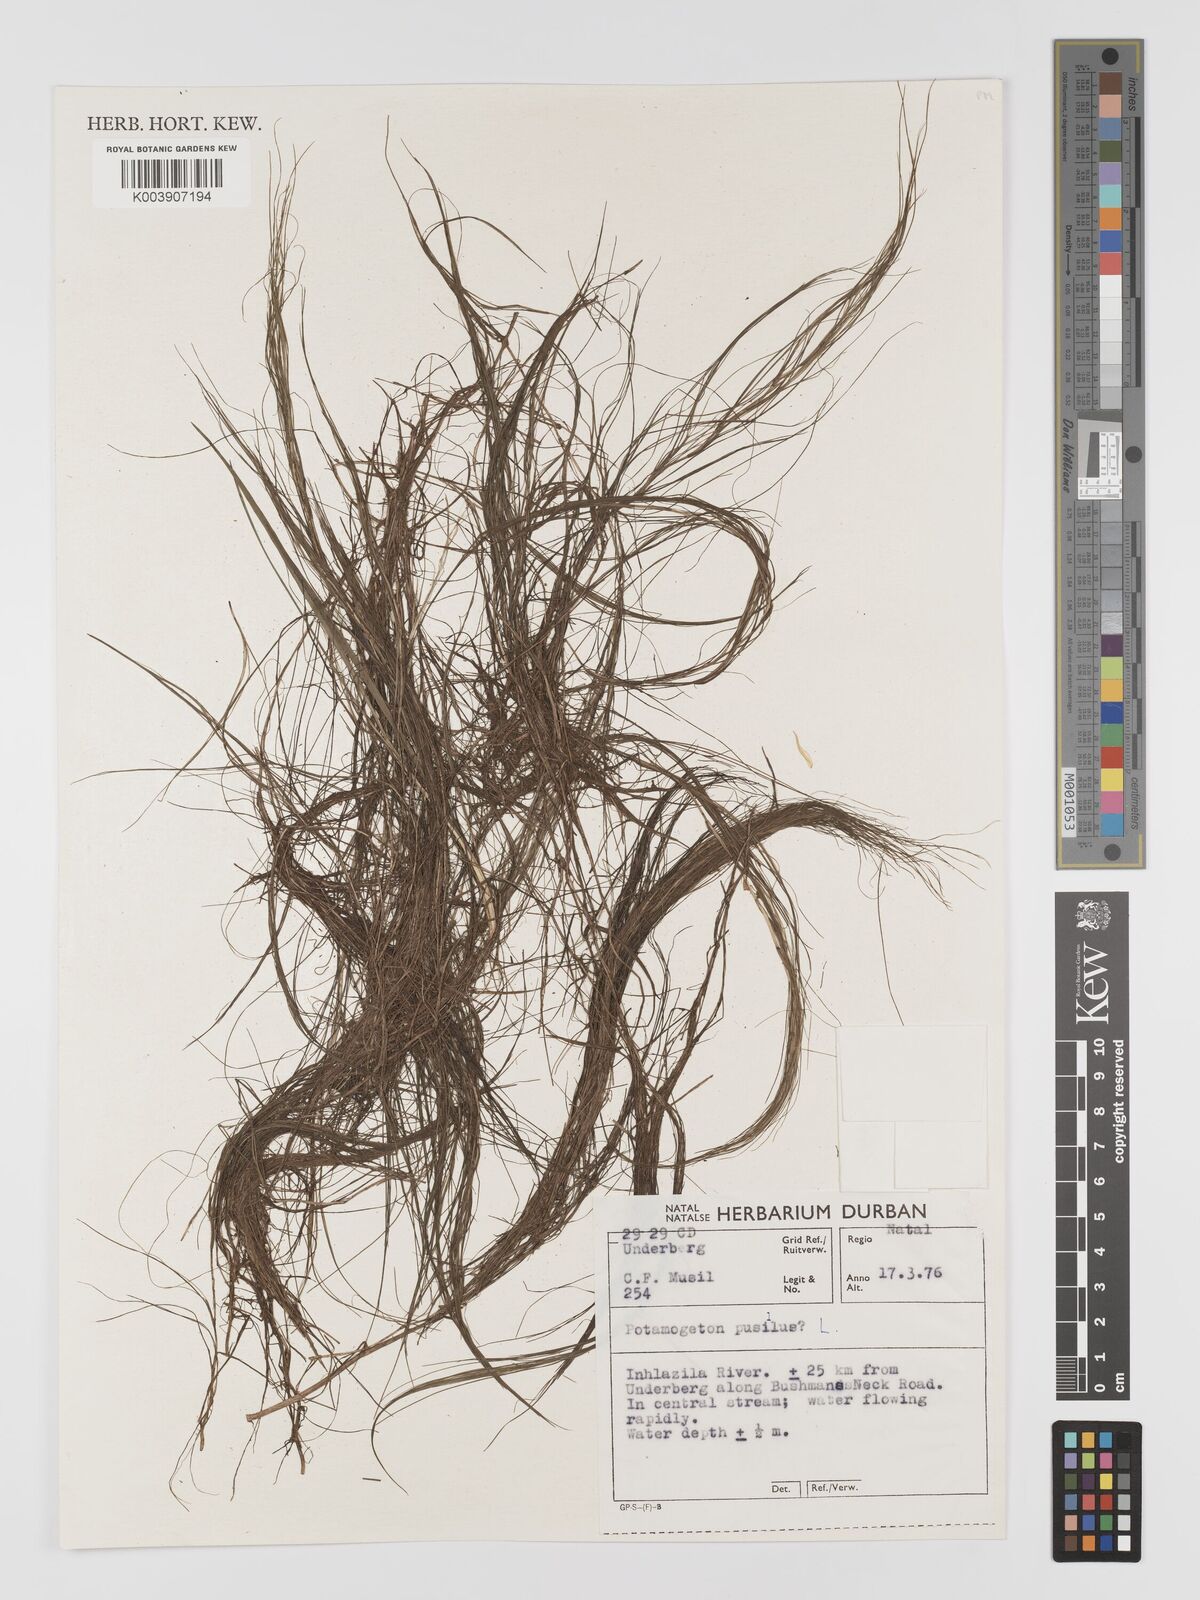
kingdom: Plantae
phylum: Tracheophyta
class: Liliopsida
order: Alismatales
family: Potamogetonaceae
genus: Potamogeton
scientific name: Potamogeton pusillus
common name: Lesser pondweed
